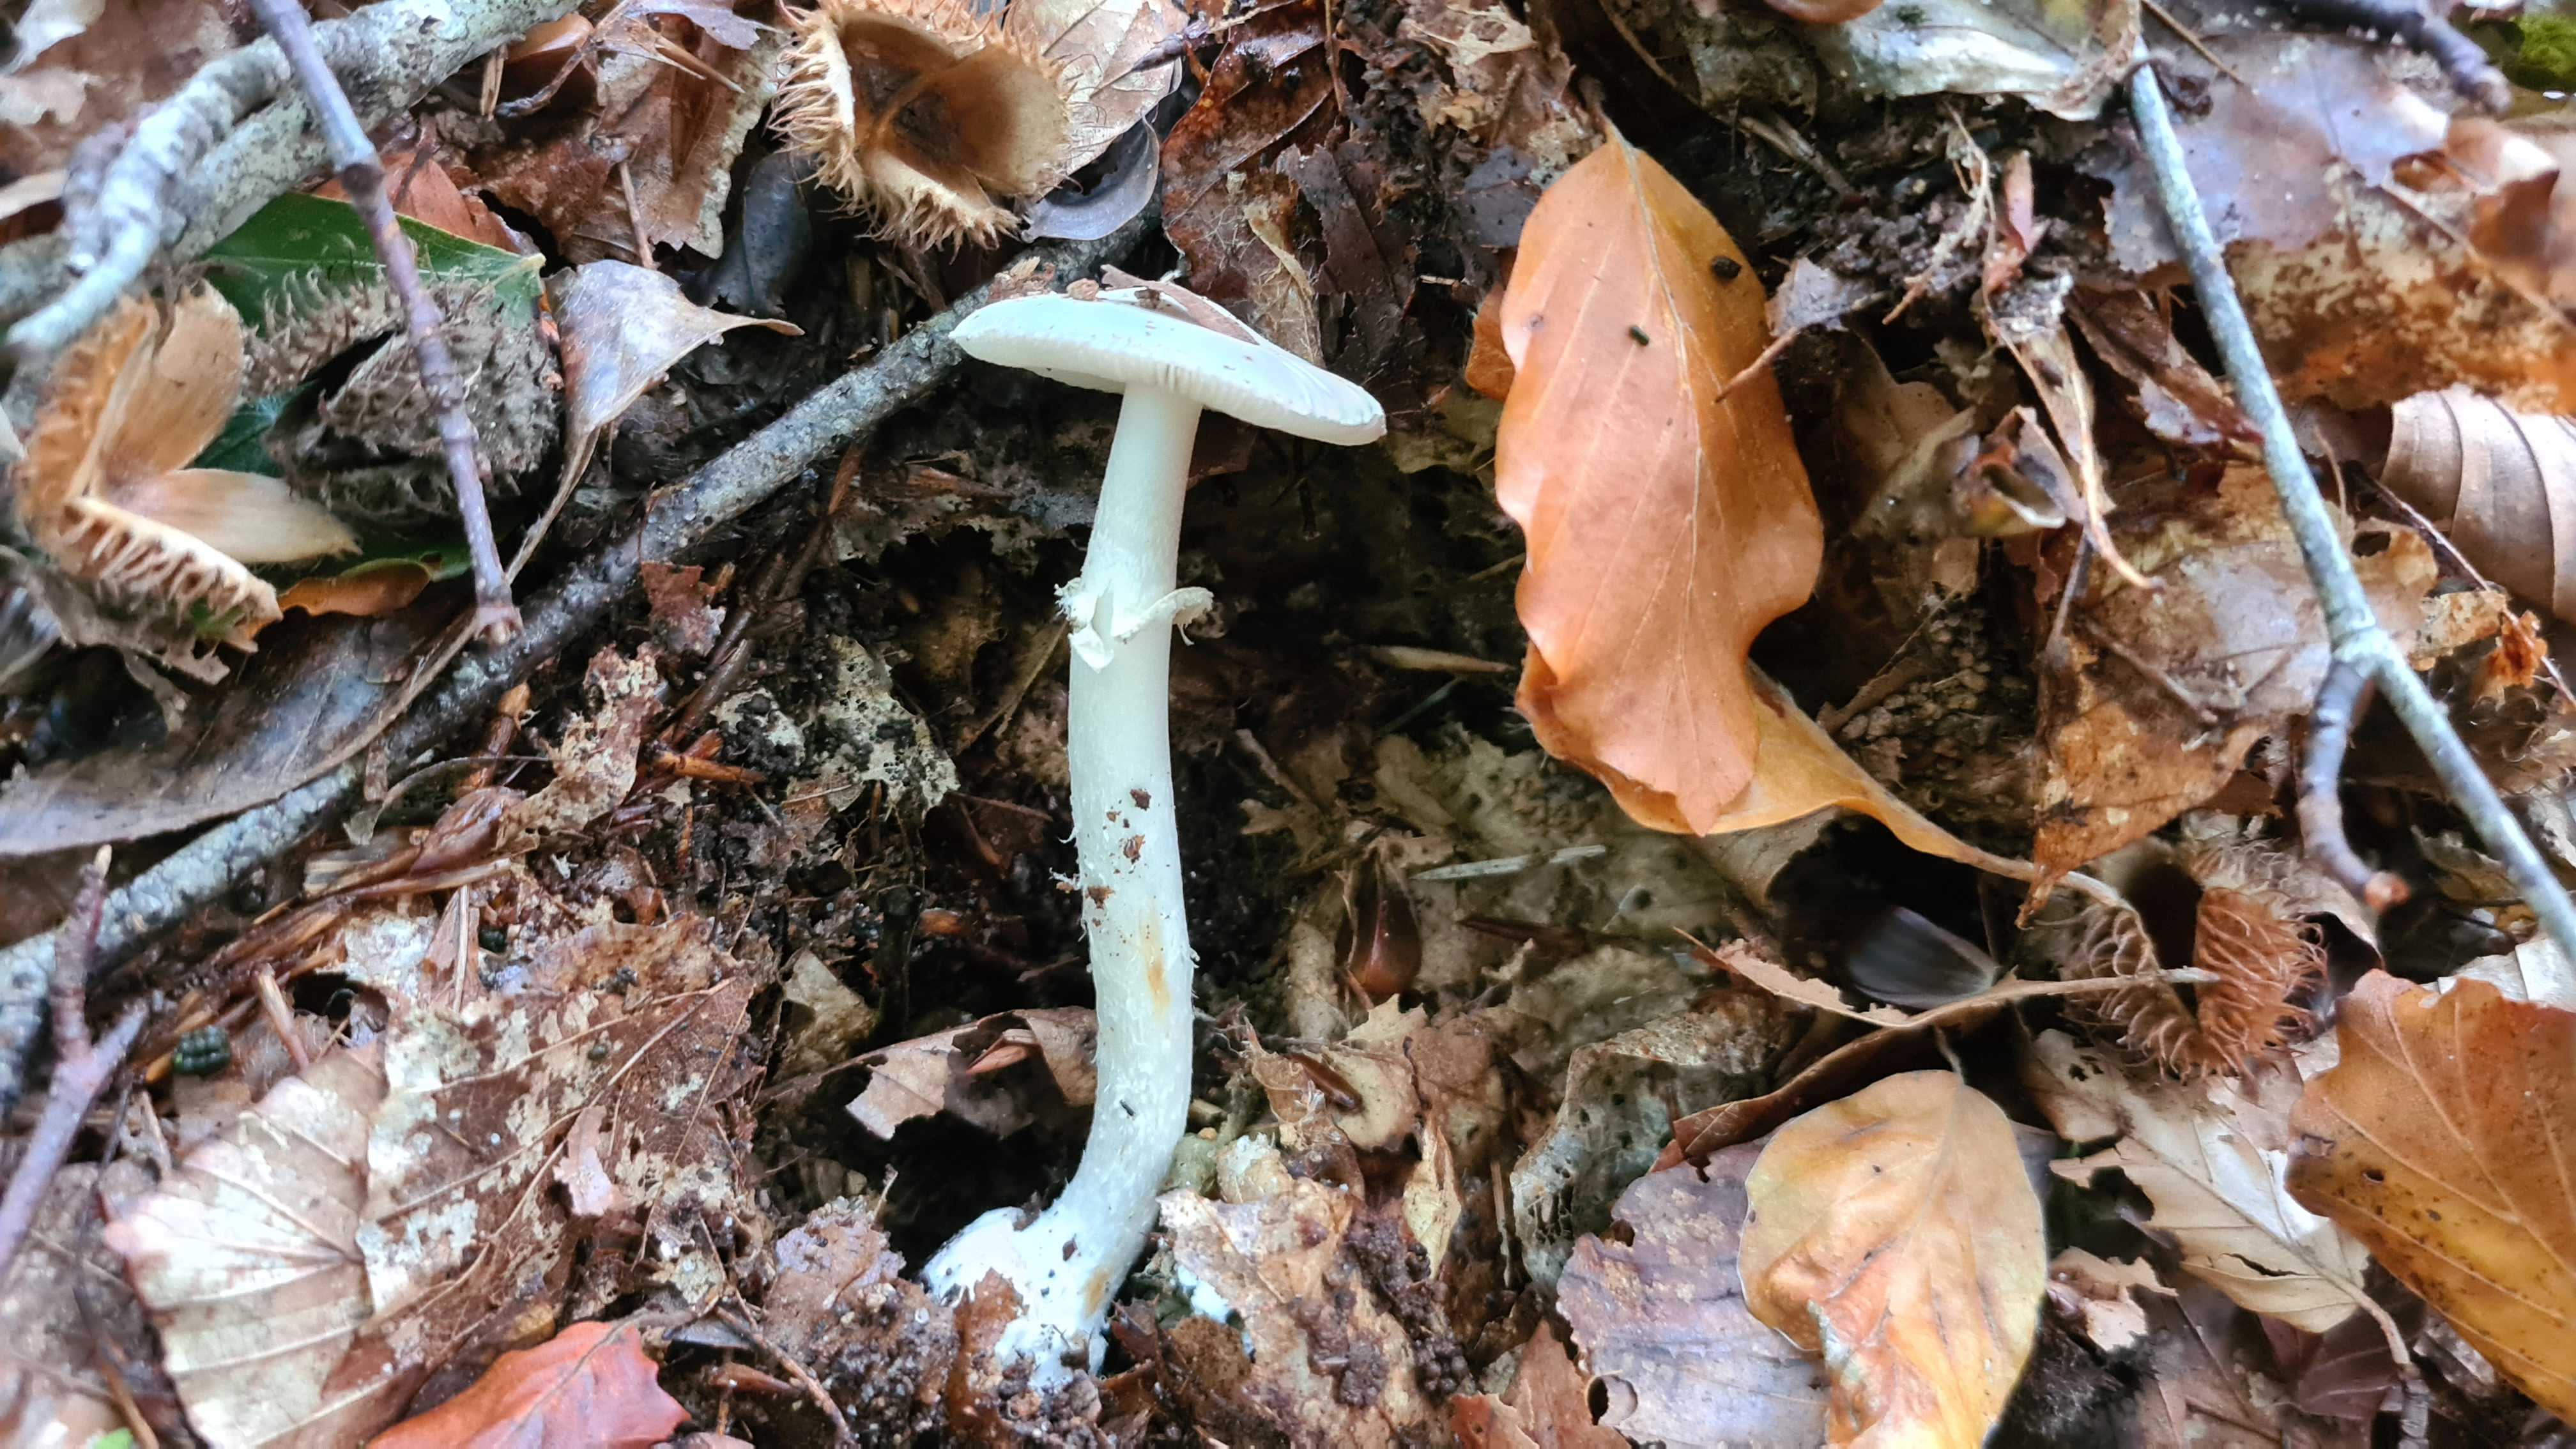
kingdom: Fungi
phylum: Basidiomycota
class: Agaricomycetes
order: Agaricales
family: Amanitaceae
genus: Amanita
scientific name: Amanita citrina
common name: False death-cap
